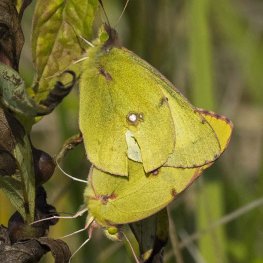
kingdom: Animalia
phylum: Arthropoda
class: Insecta
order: Lepidoptera
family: Pieridae
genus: Colias
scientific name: Colias philodice
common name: Clouded Sulphur
